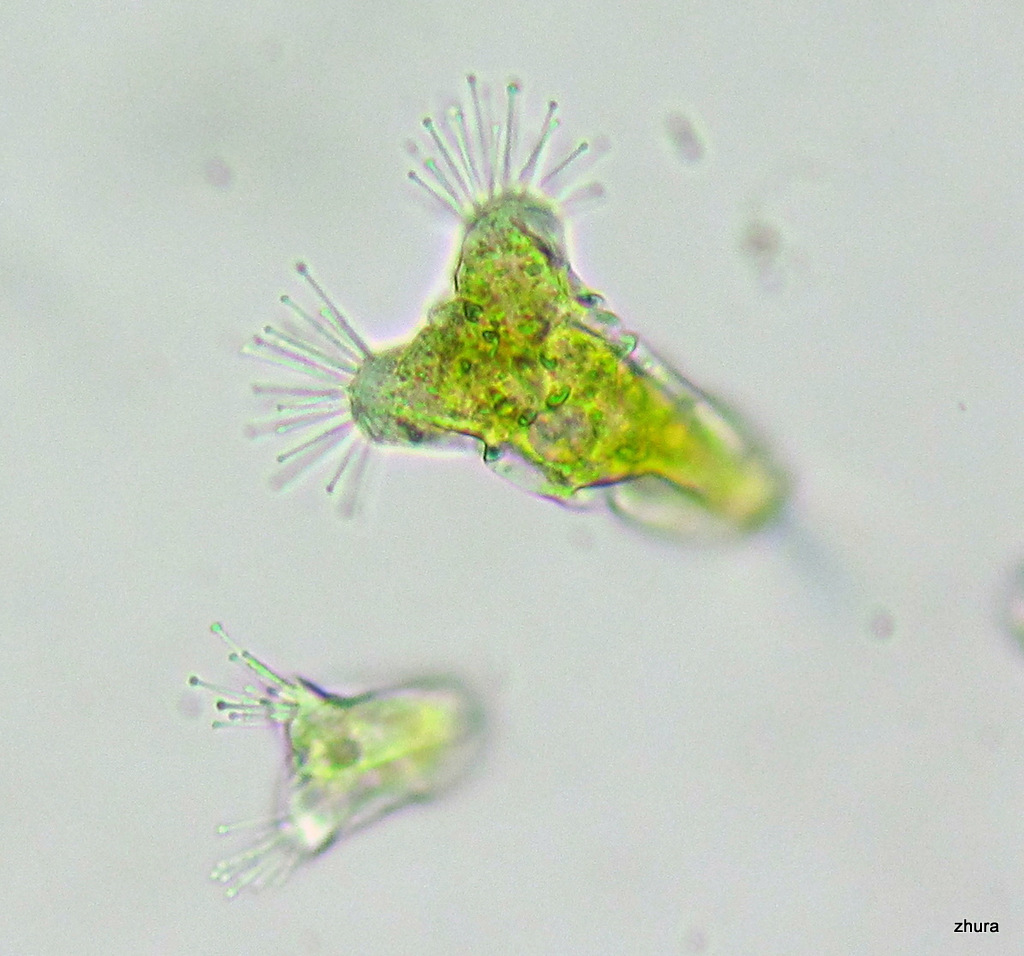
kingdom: Chromista
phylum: Ciliophora
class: Kinetofragminophora
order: Suctorida
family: Acinetidae
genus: Acineta
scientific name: Acineta tuberosa
